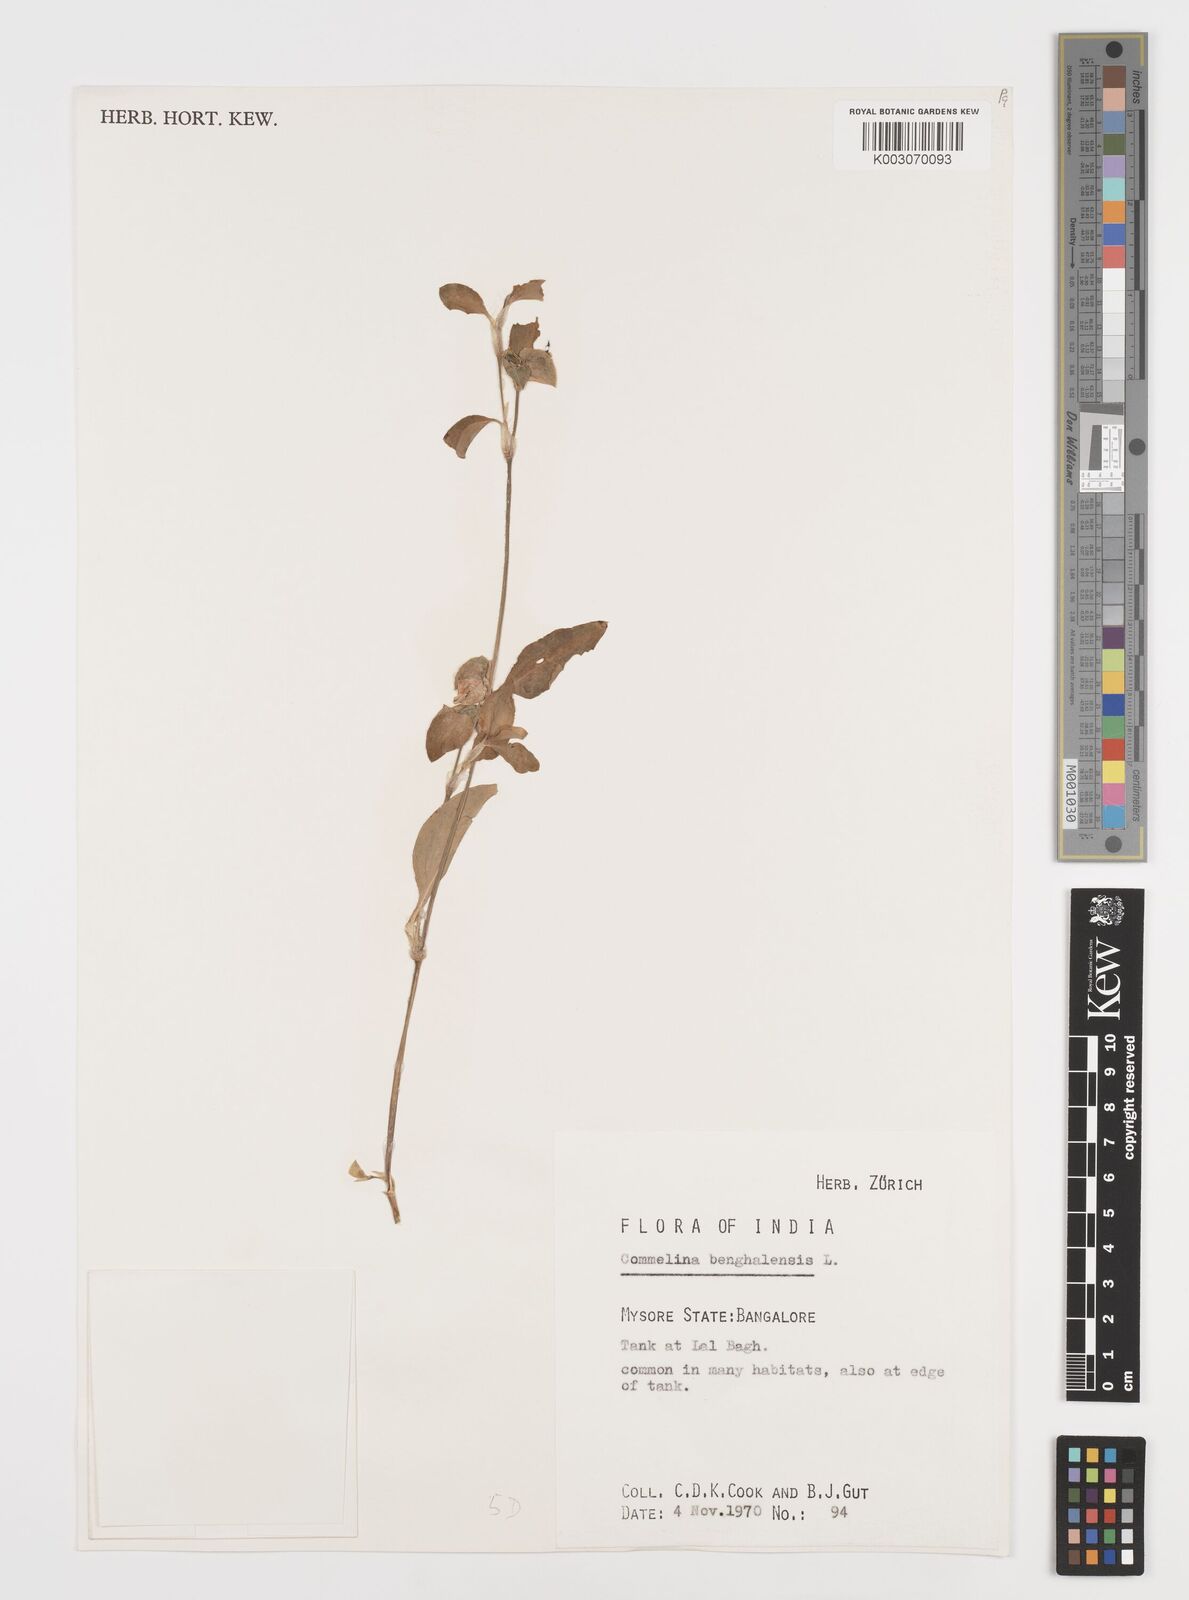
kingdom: Plantae
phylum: Tracheophyta
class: Liliopsida
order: Commelinales
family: Commelinaceae
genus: Commelina
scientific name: Commelina benghalensis
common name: Jio
